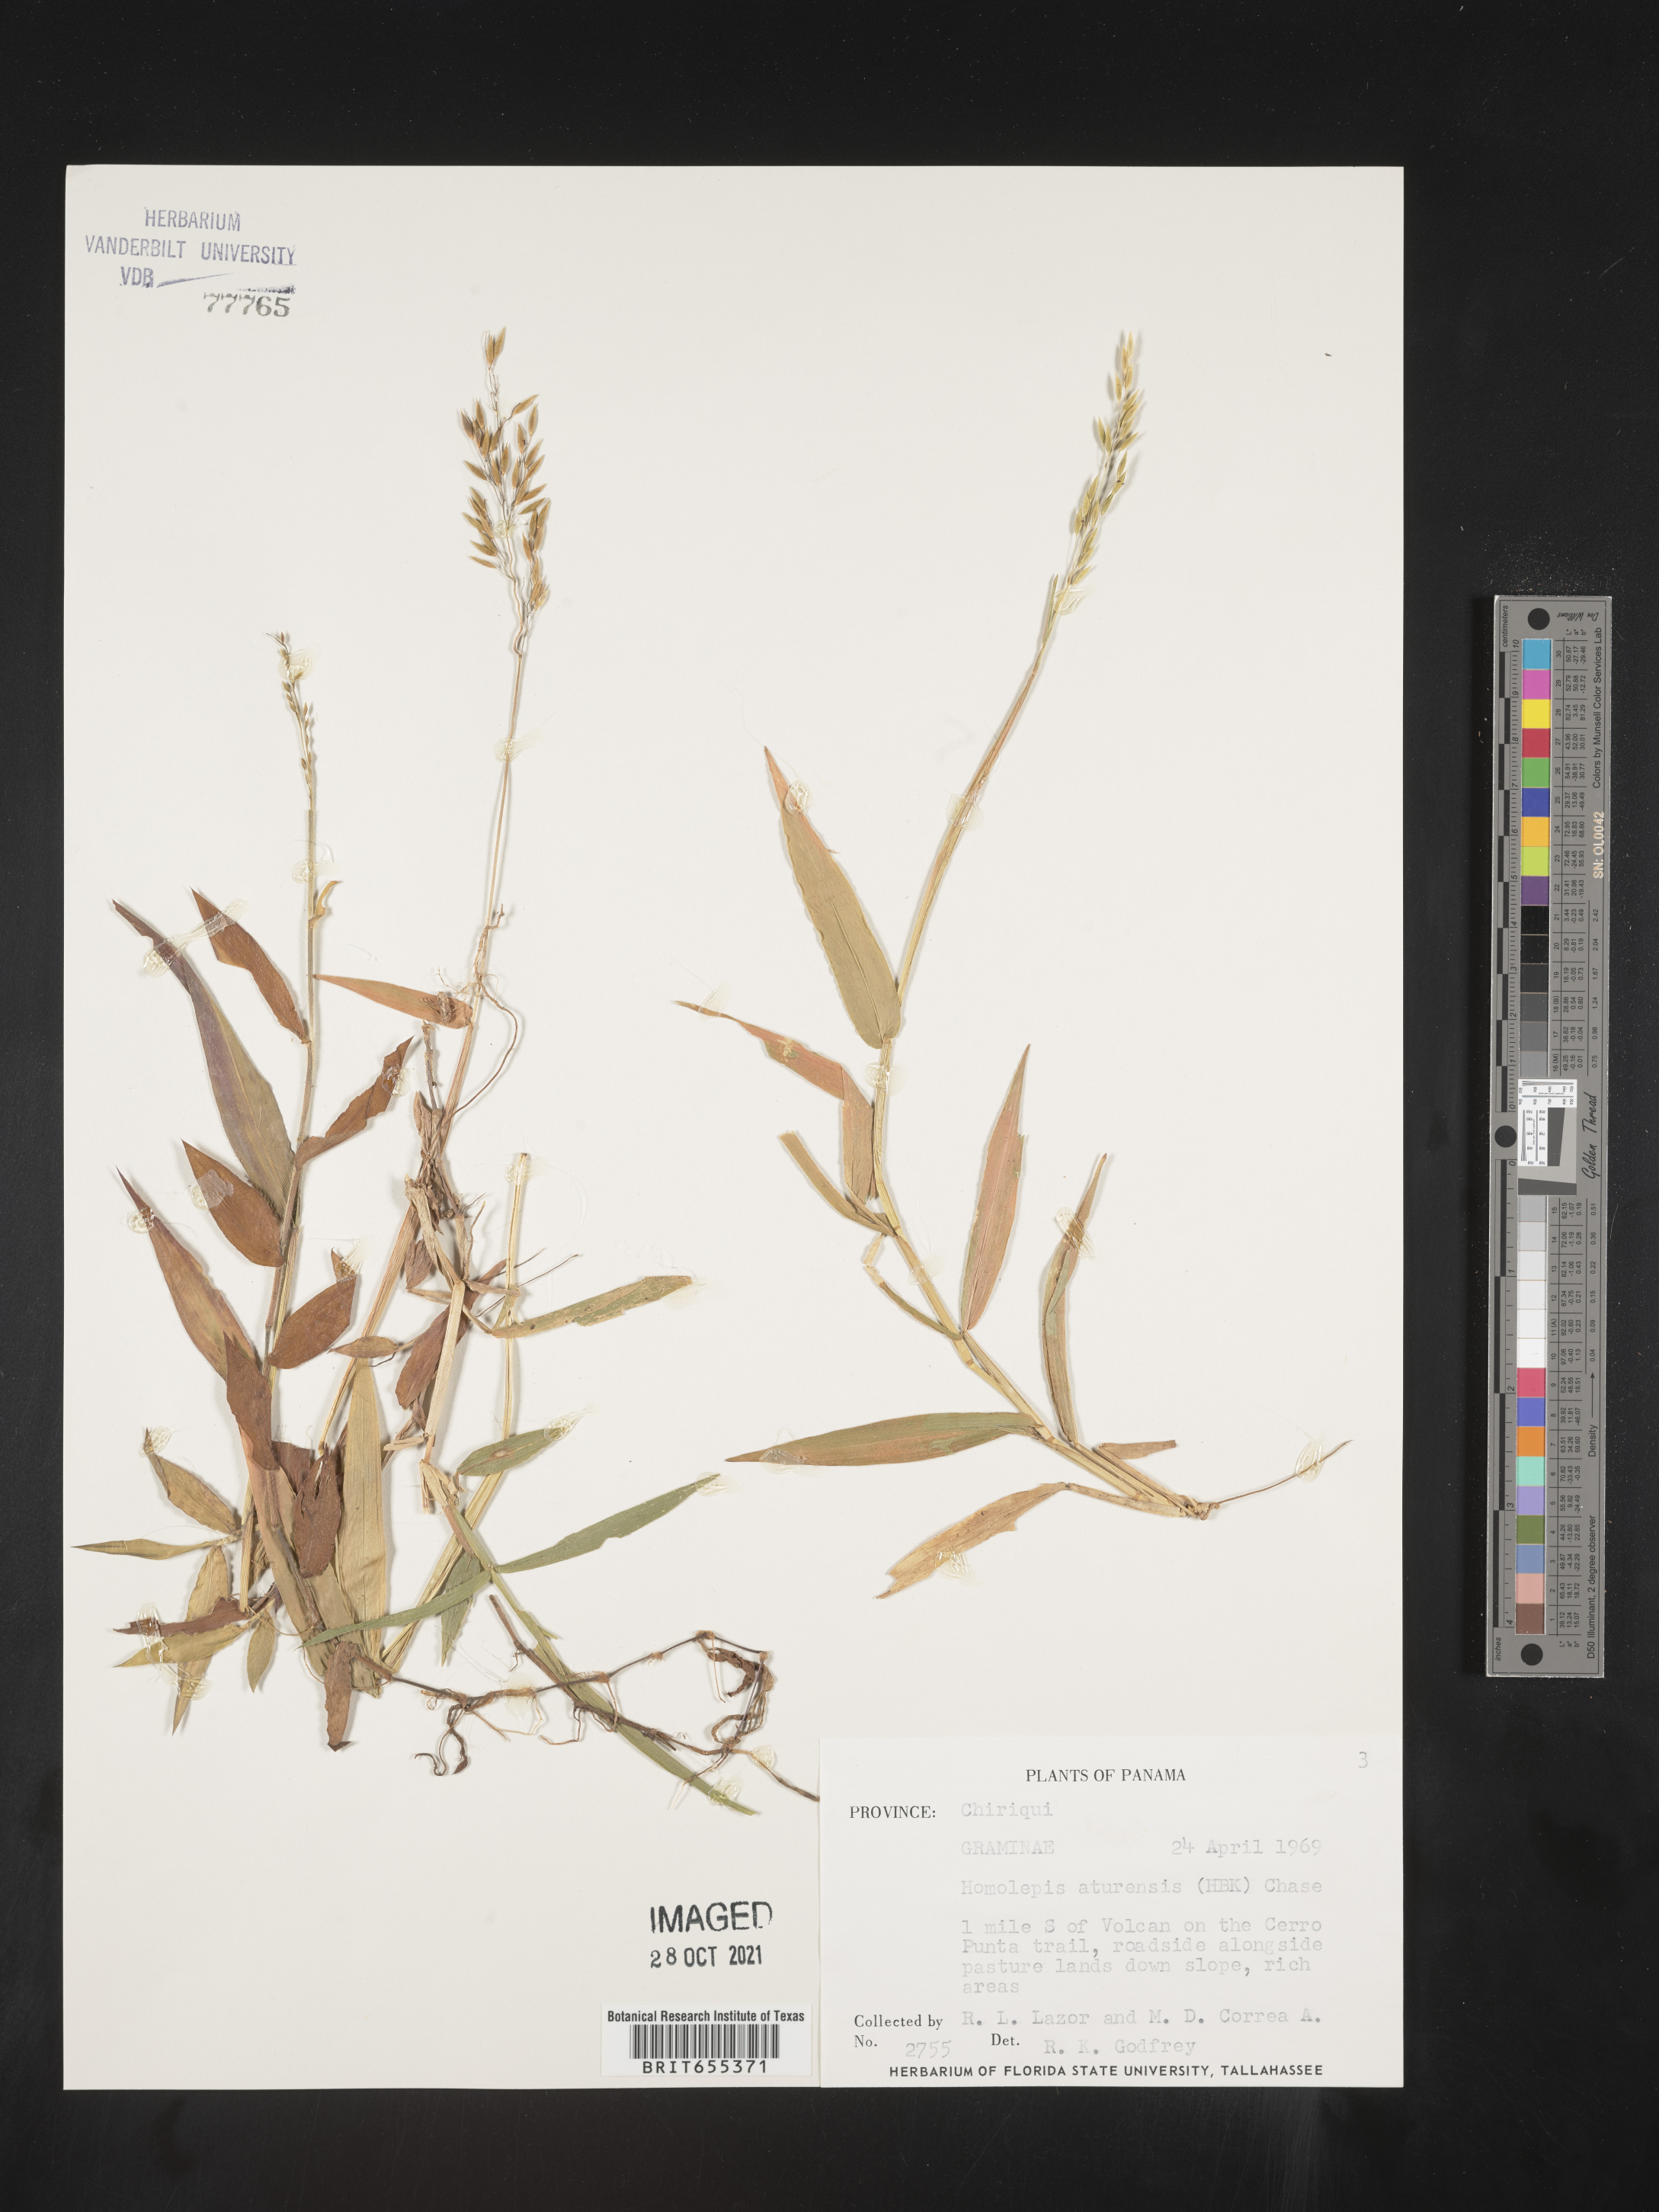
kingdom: Plantae
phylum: Tracheophyta
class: Liliopsida
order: Poales
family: Poaceae
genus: Homolepis
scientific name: Homolepis
